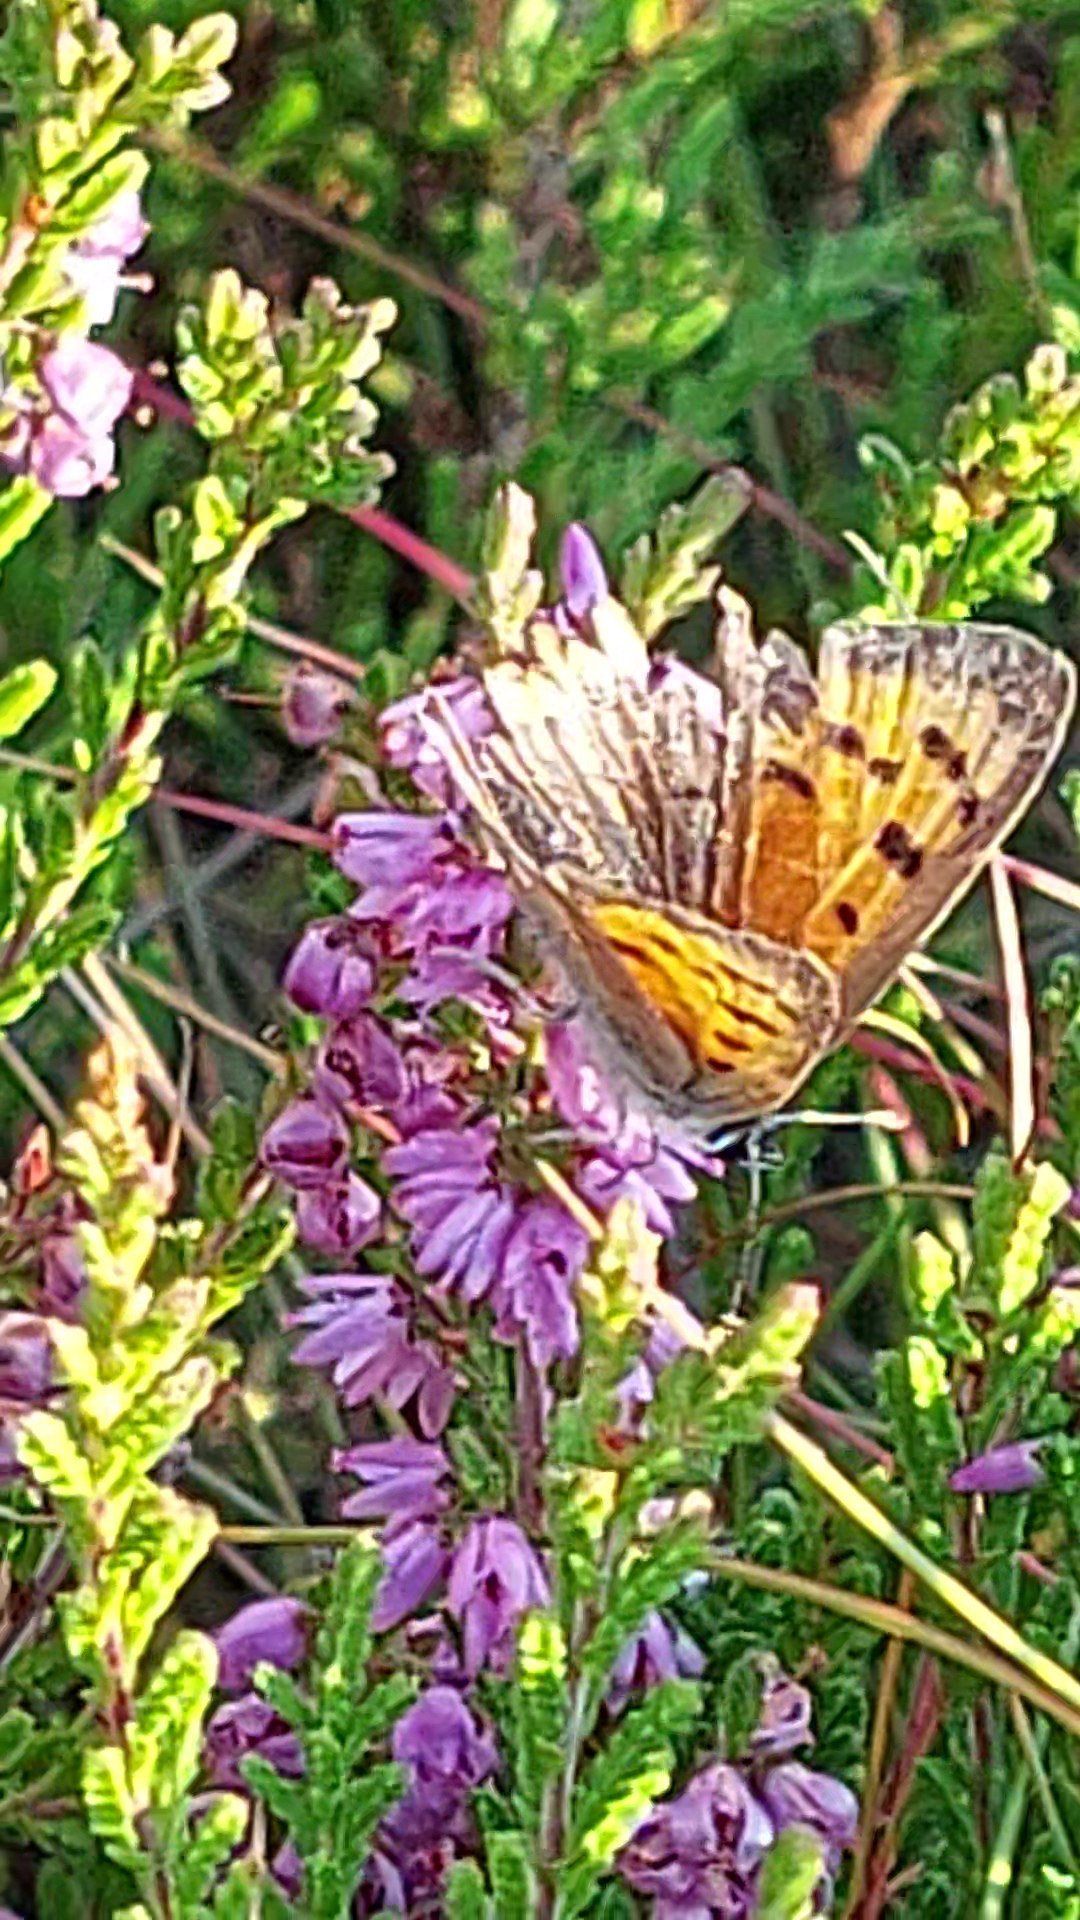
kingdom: Animalia
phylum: Arthropoda
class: Insecta
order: Lepidoptera
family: Lycaenidae
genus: Lycaena
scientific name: Lycaena phlaeas
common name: Lille ildfugl
